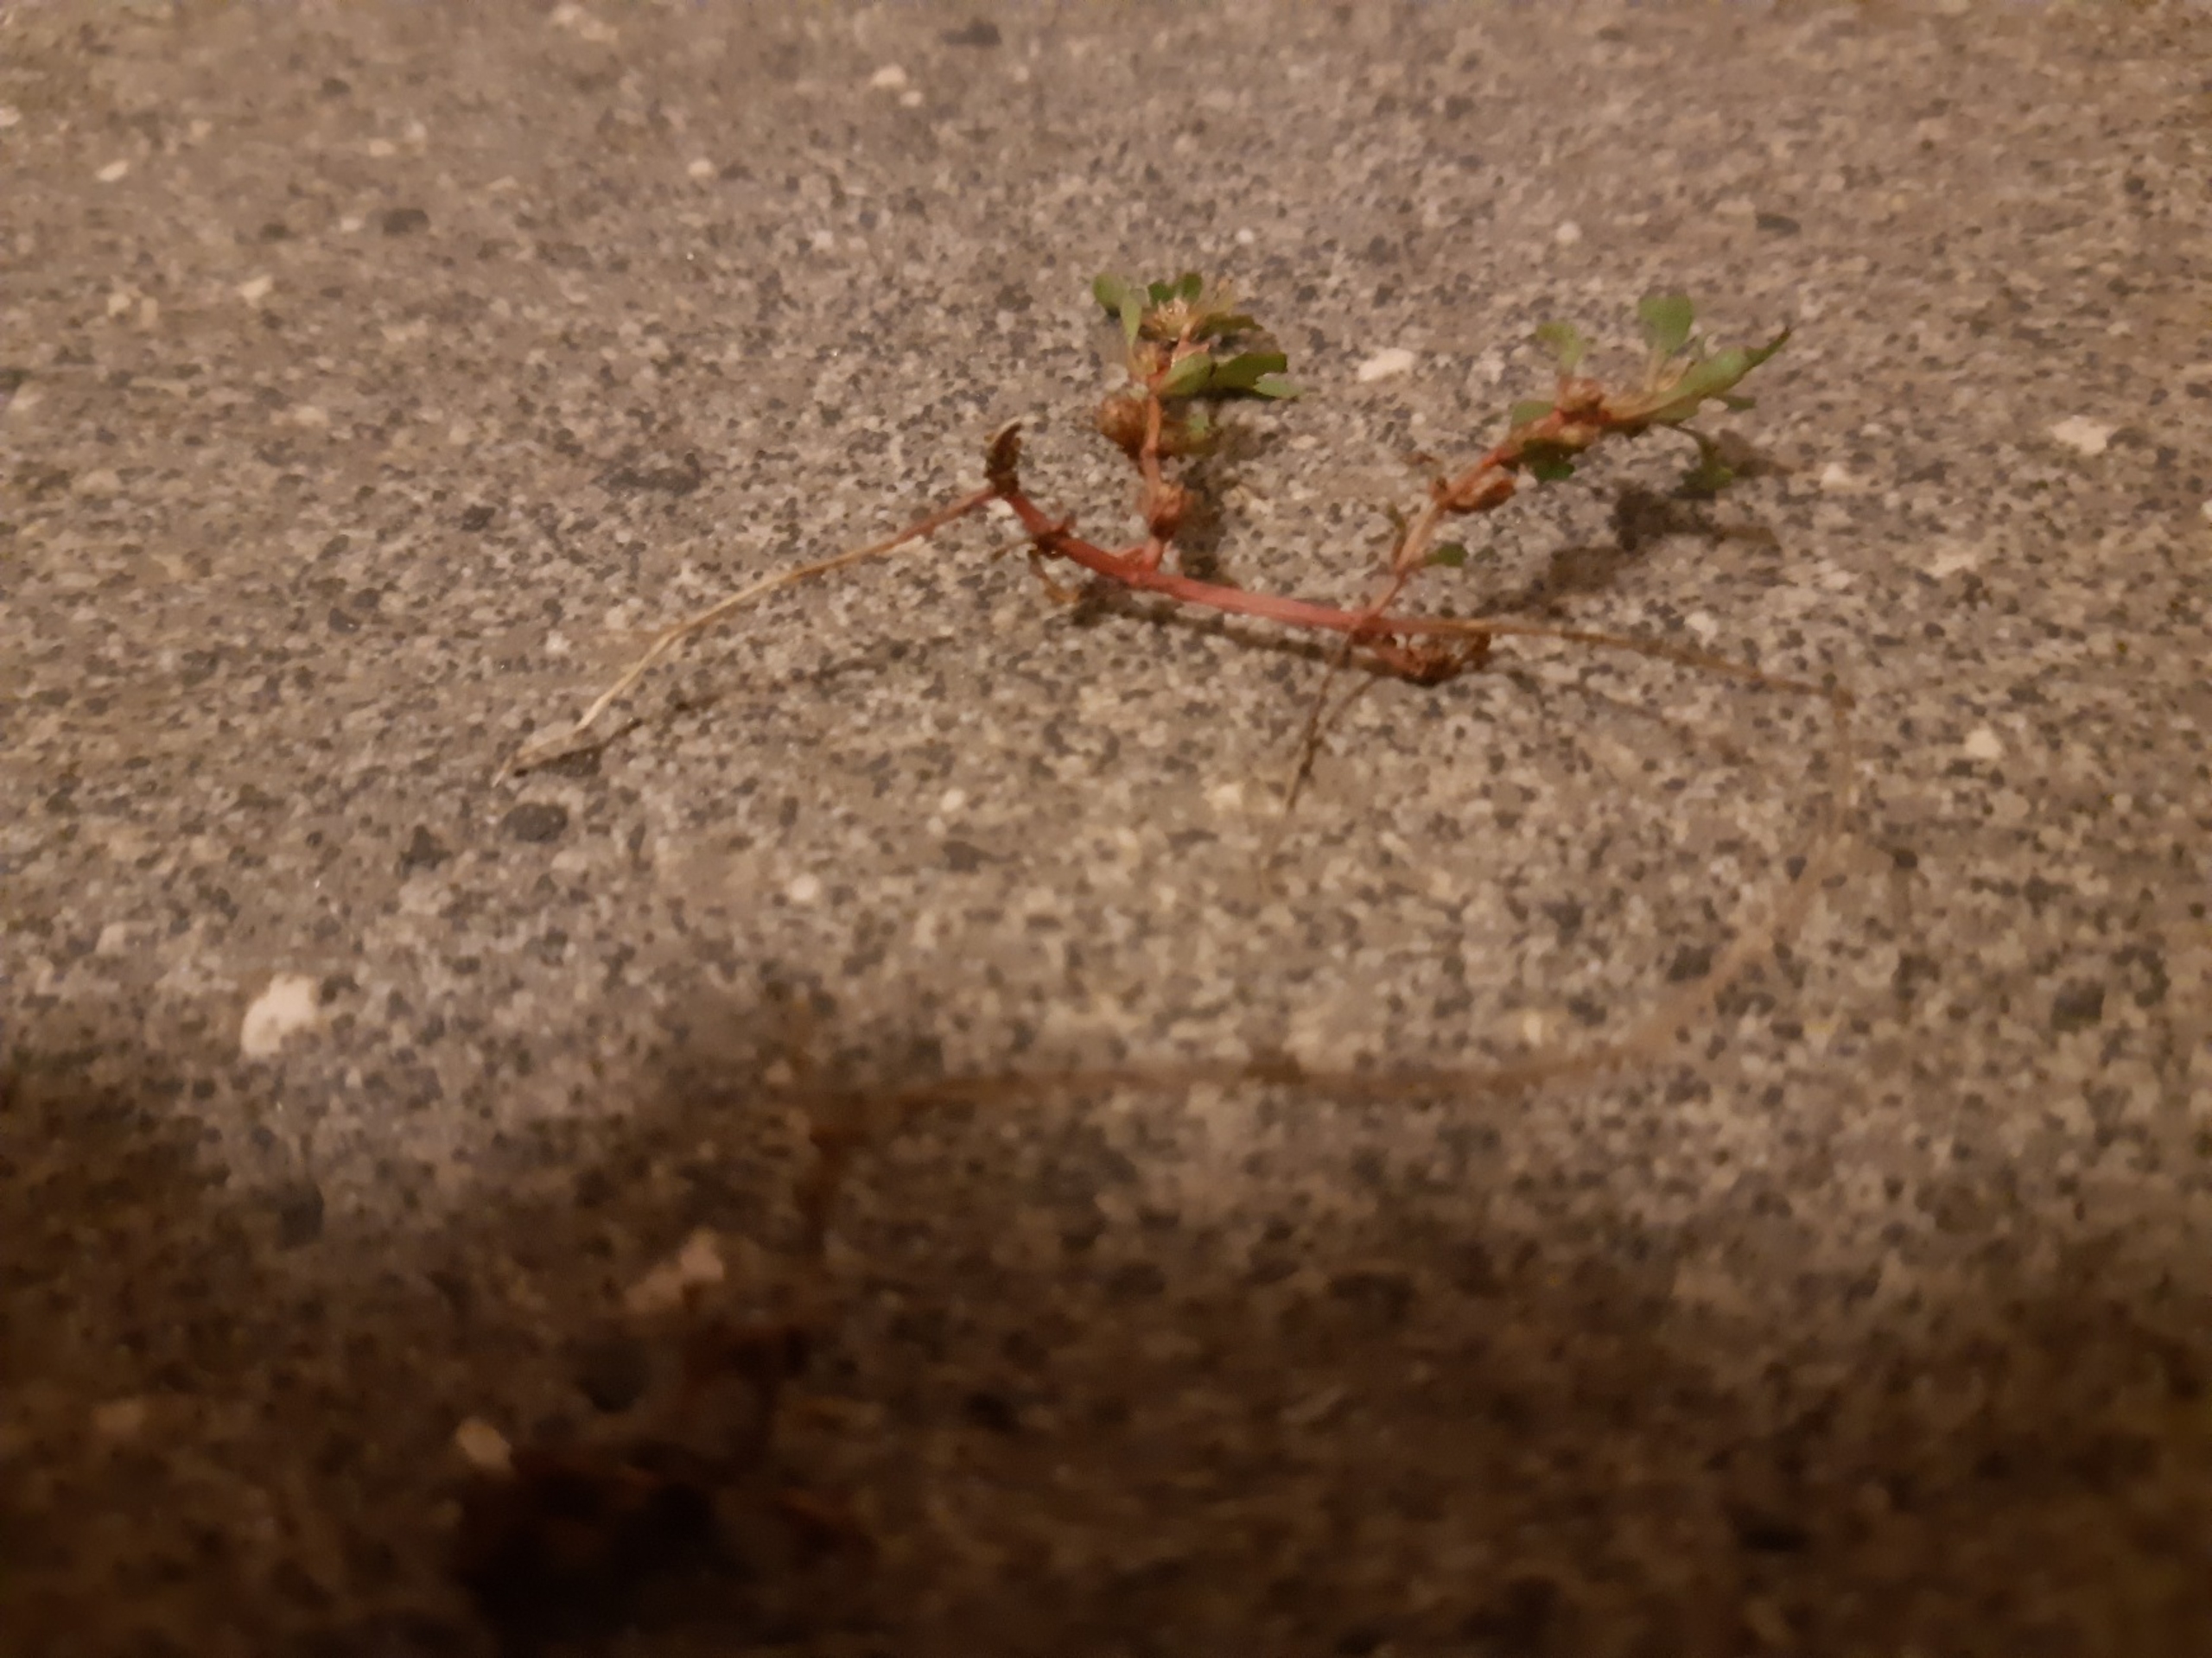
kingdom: Plantae
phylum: Tracheophyta
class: Magnoliopsida
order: Myrtales
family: Lythraceae
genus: Lythrum
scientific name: Lythrum portula
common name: Vandportulak
